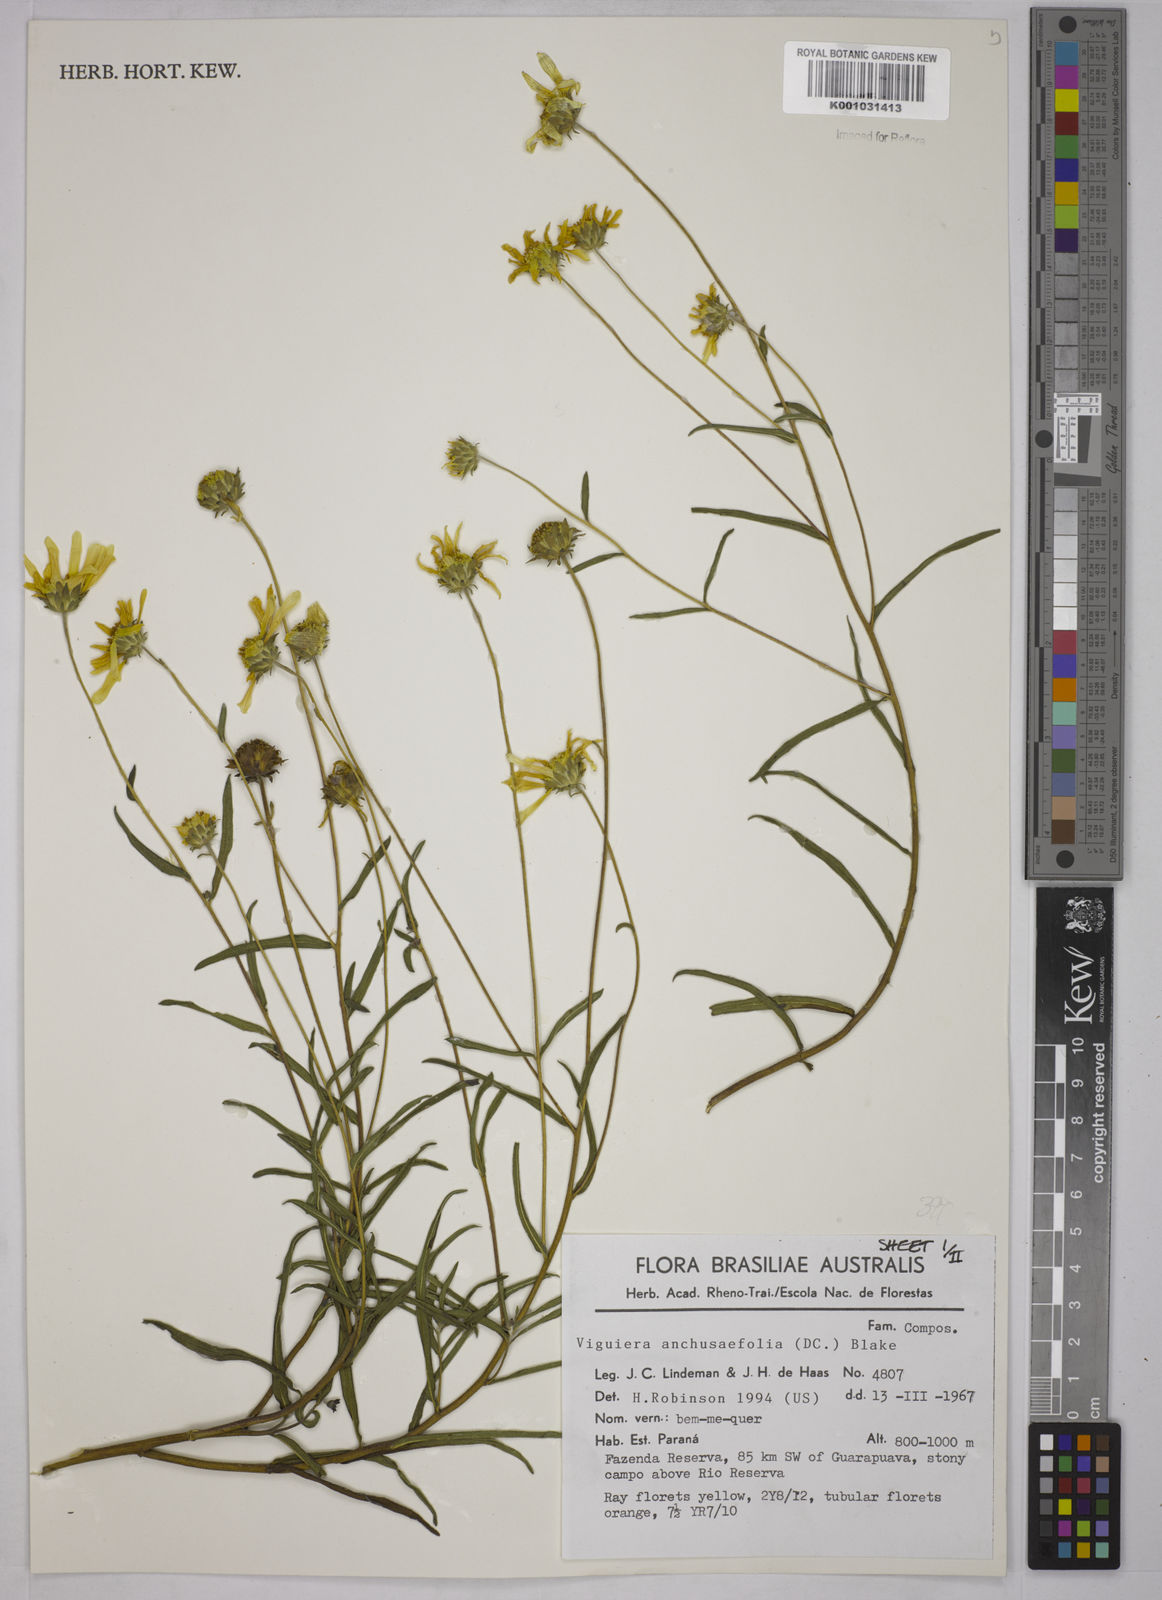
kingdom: Plantae
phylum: Tracheophyta
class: Magnoliopsida
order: Asterales
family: Asteraceae
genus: Viguiera
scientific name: Viguiera
